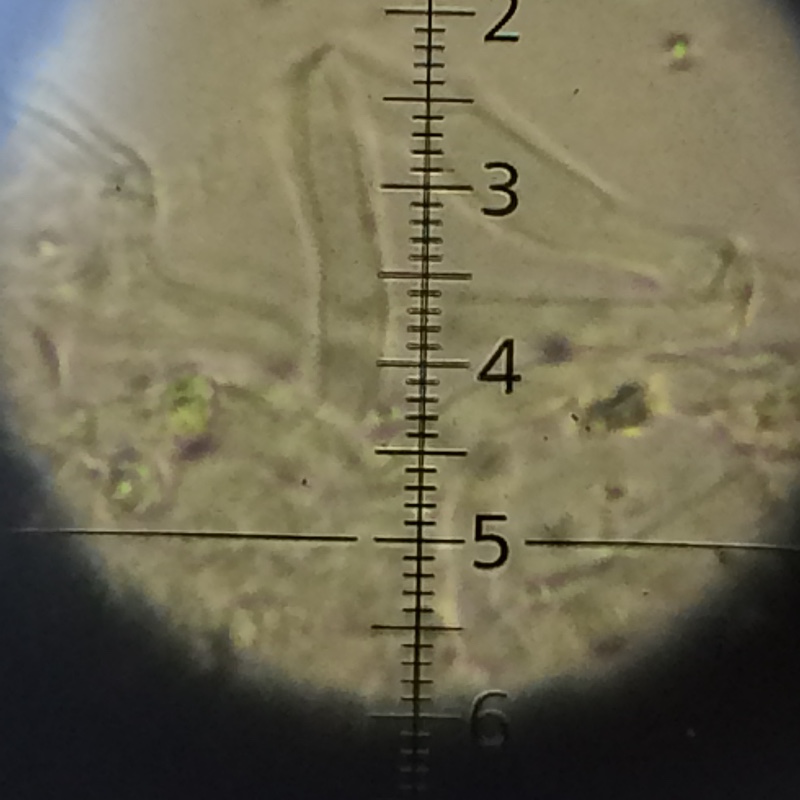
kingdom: Fungi
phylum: Basidiomycota
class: Agaricomycetes
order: Trechisporales
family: Sistotremataceae
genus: Trechispora
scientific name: Trechispora hymenocystis
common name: poret vathinde
